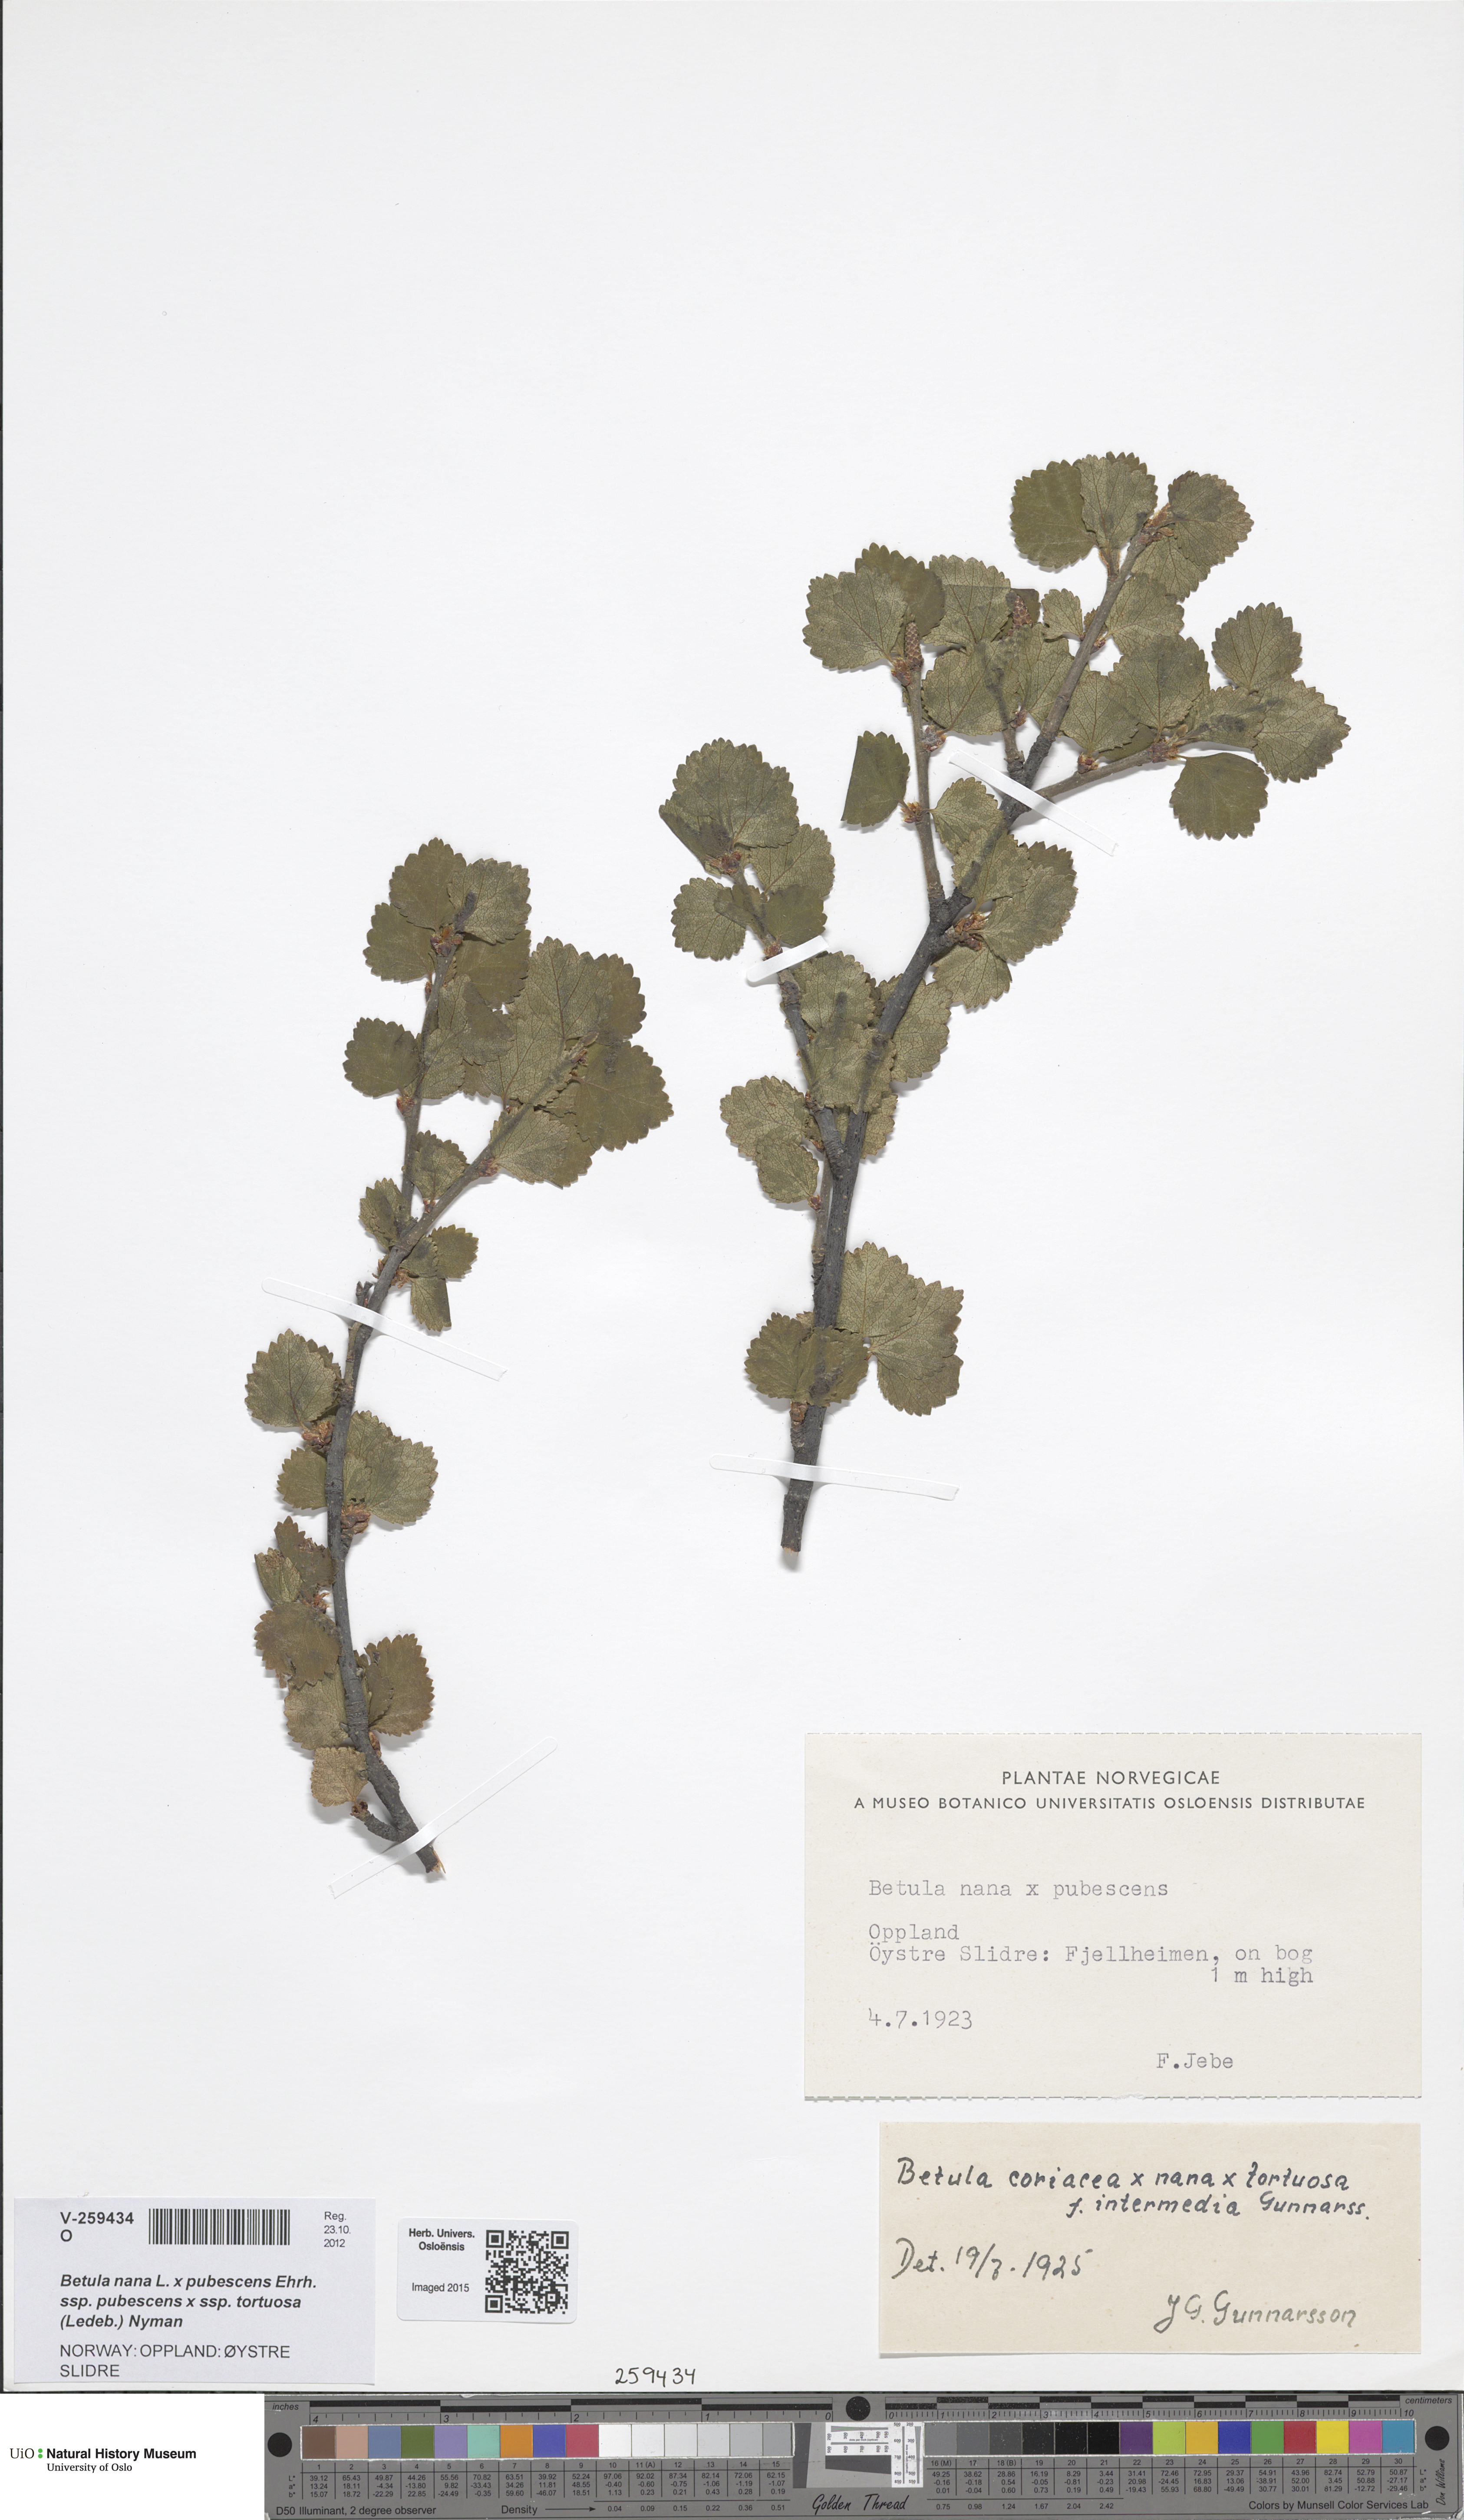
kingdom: Plantae
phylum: Tracheophyta
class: Magnoliopsida
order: Fagales
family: Betulaceae
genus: Betula
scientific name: Betula
